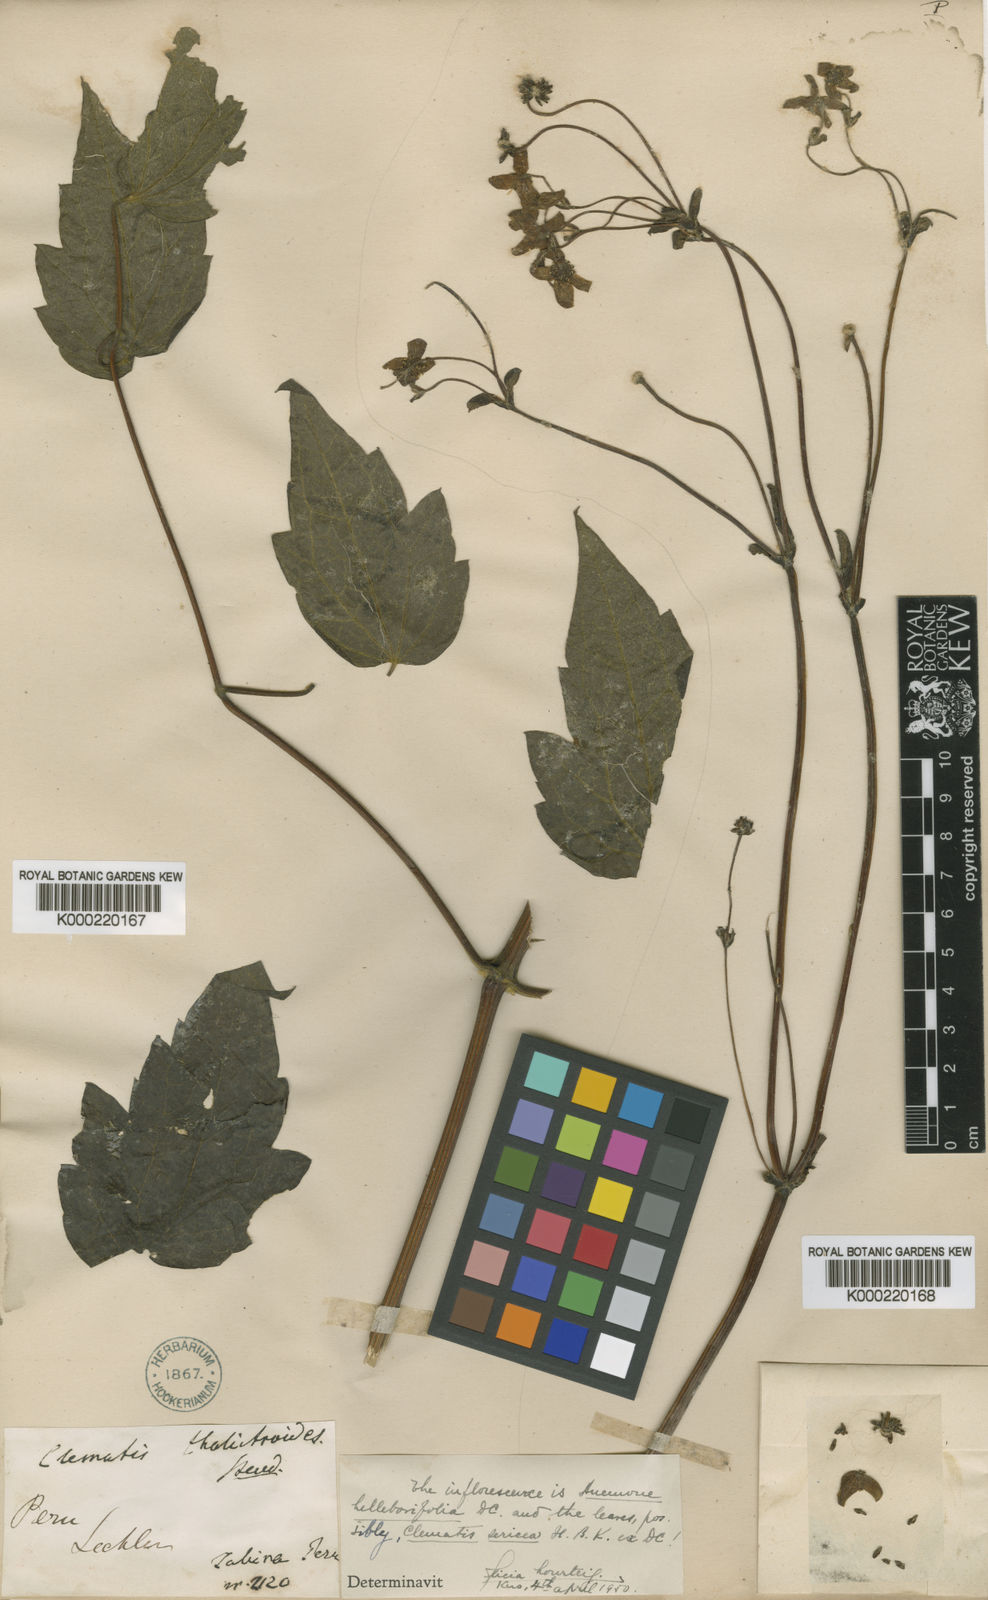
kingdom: Plantae
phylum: Tracheophyta
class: Magnoliopsida
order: Ranunculales
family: Ranunculaceae
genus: Knowltonia
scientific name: Knowltonia helleborifolia
